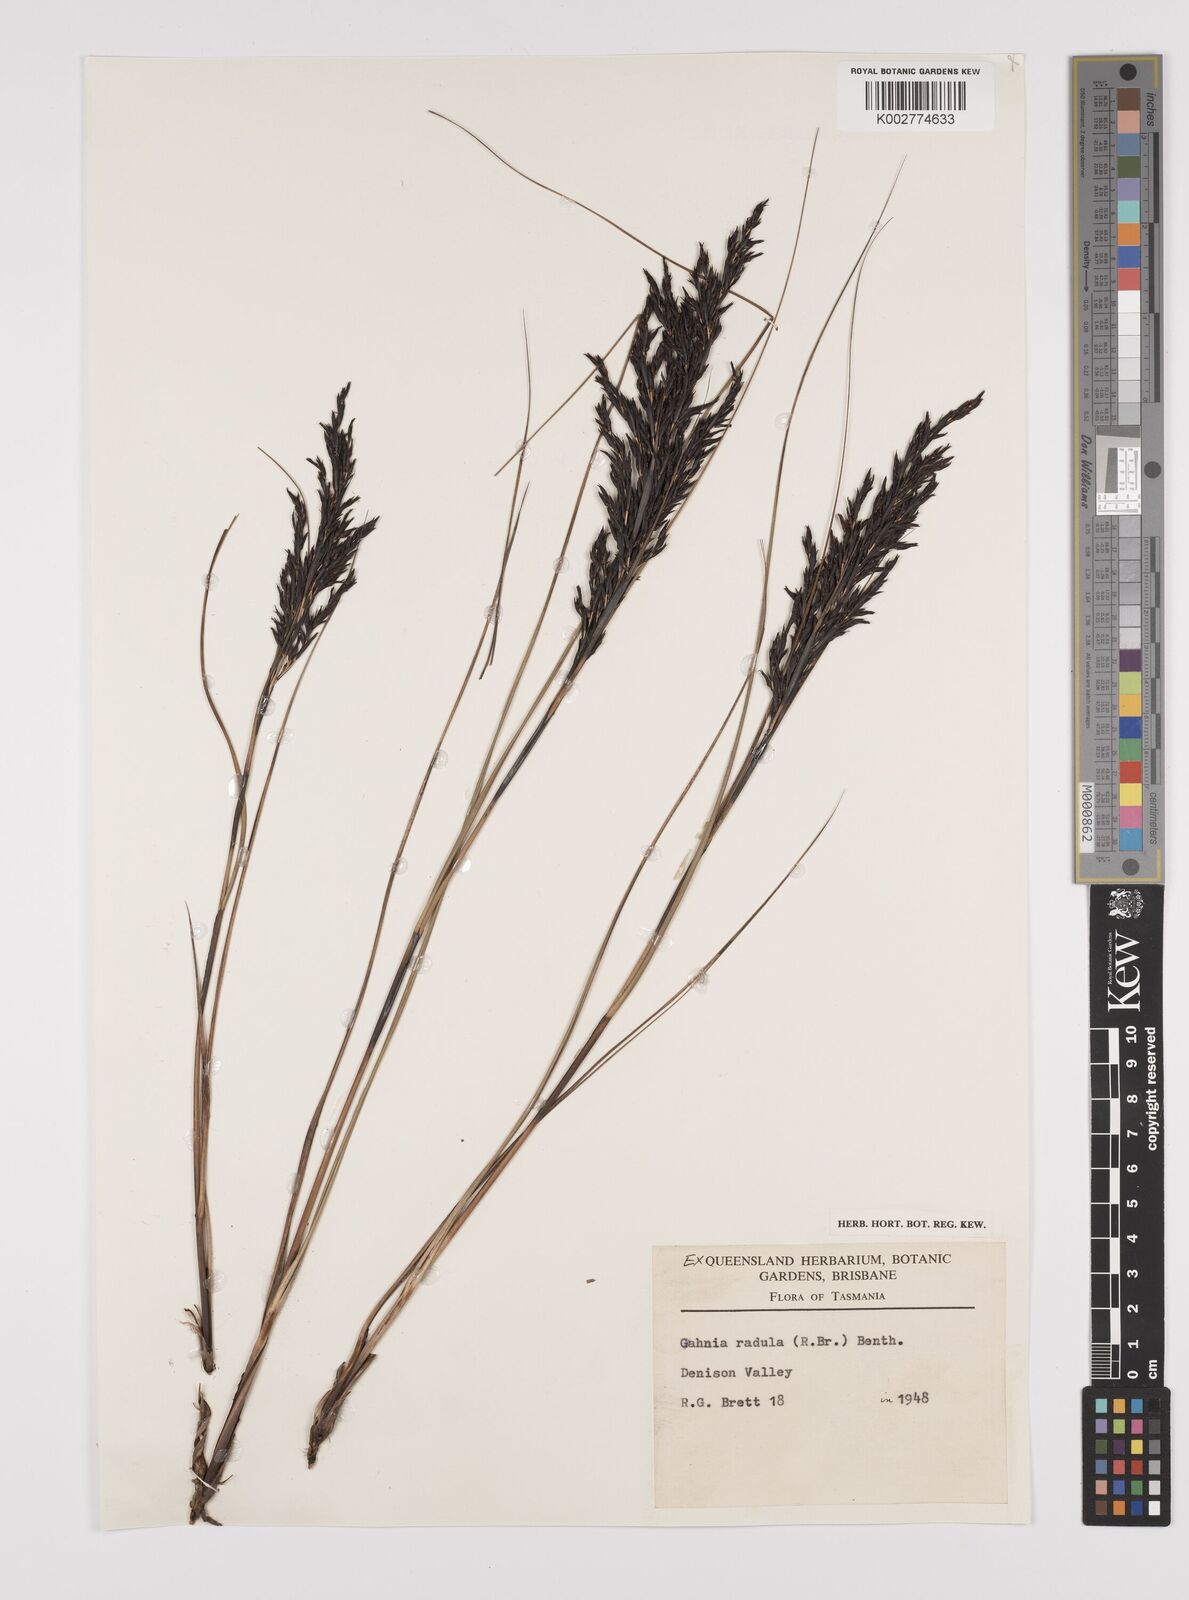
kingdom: Plantae
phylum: Tracheophyta
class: Liliopsida
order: Poales
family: Cyperaceae
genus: Gahnia
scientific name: Gahnia radula
